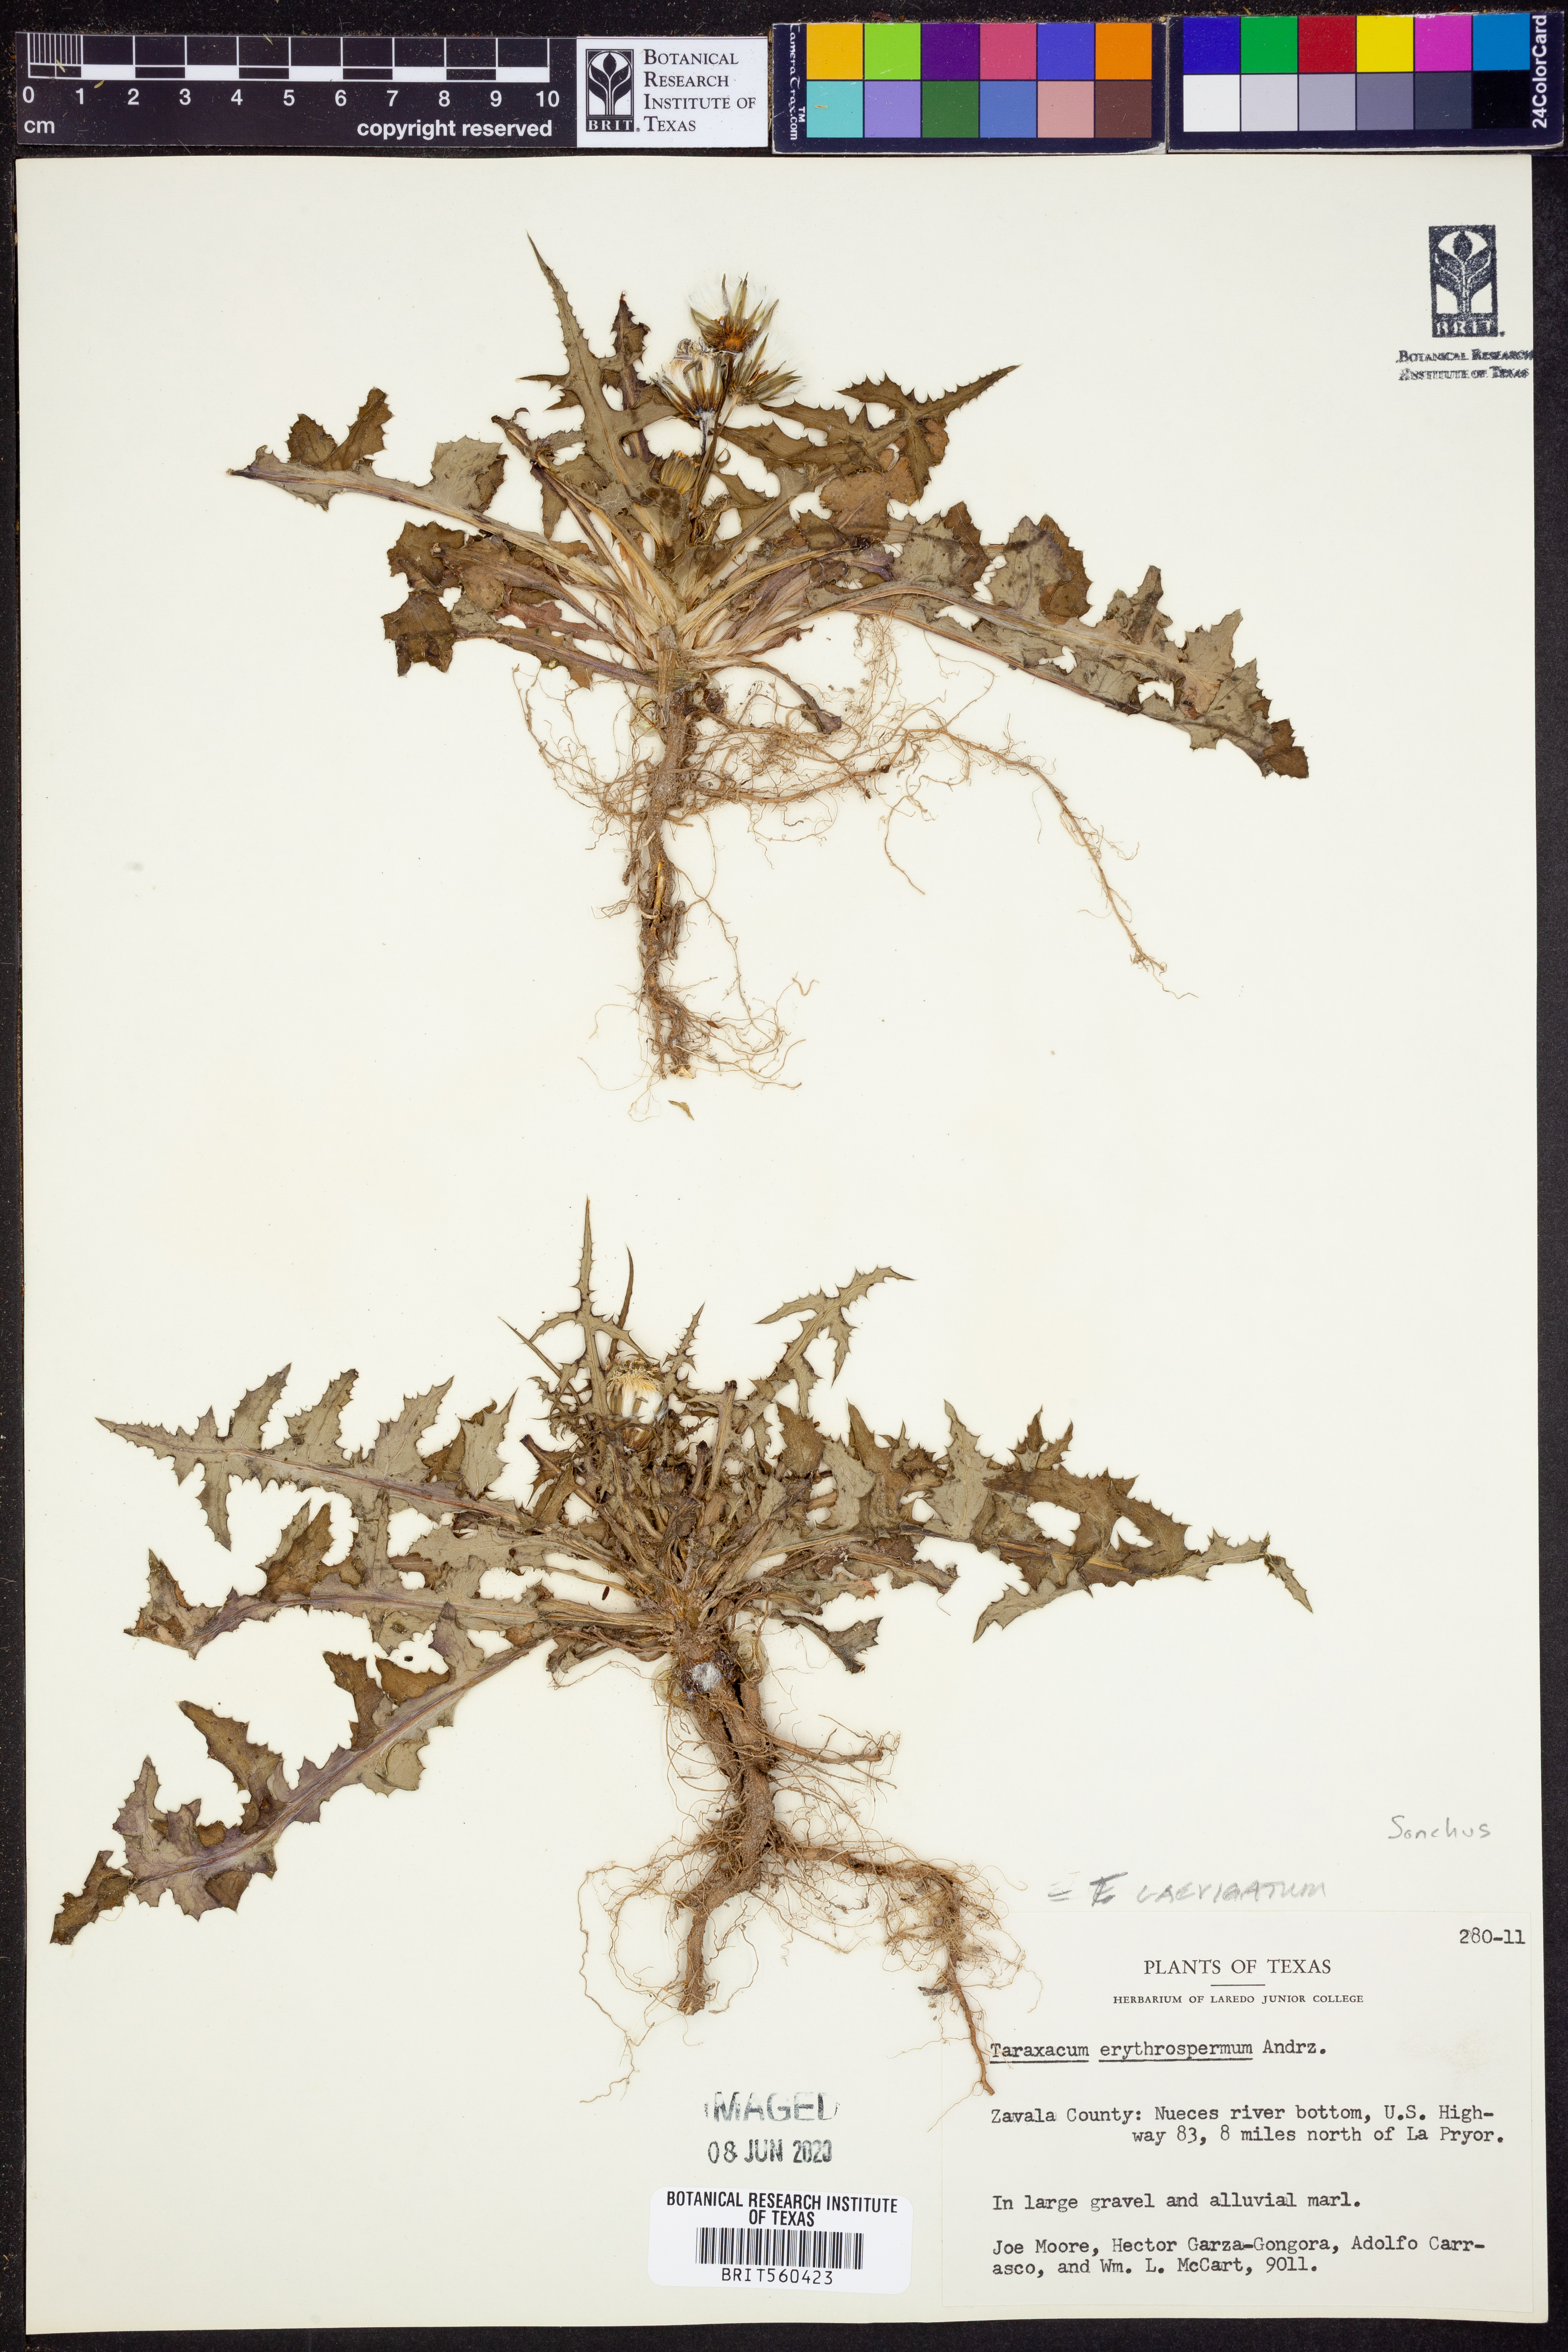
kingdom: Plantae
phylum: Tracheophyta
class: Magnoliopsida
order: Asterales
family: Asteraceae
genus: Taraxacum
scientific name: Taraxacum erythrospermum
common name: Rock dandelion
